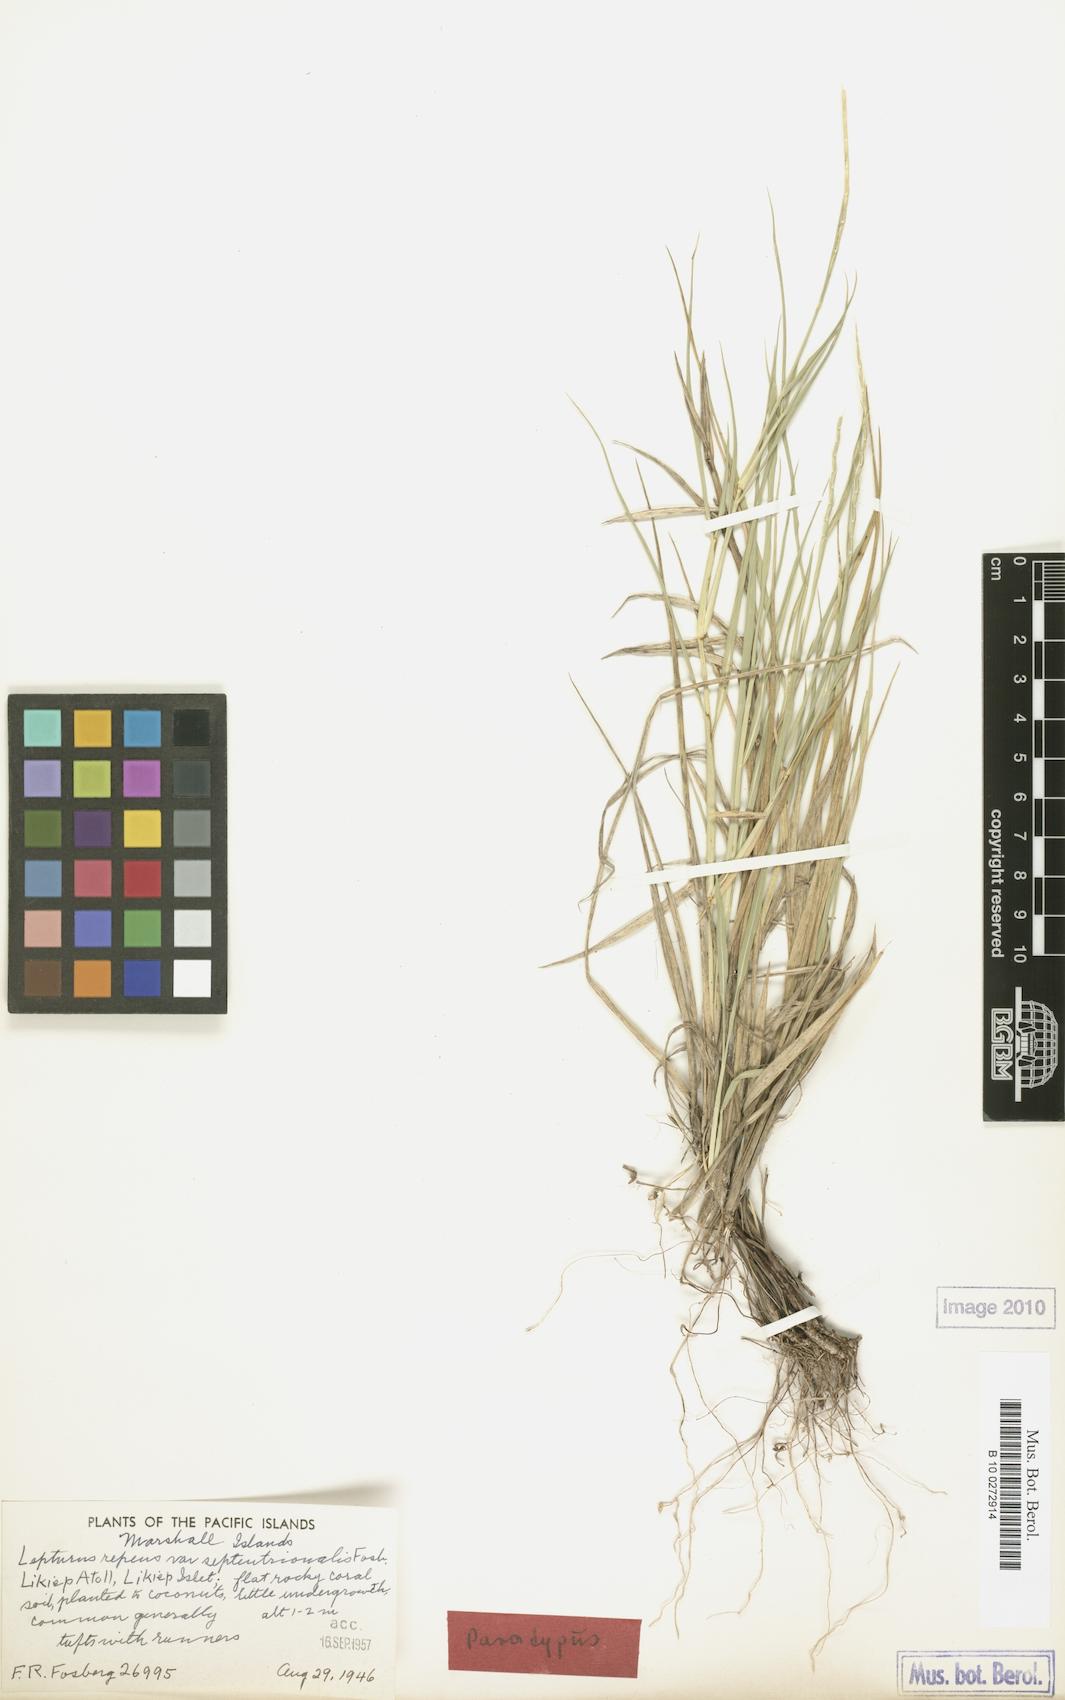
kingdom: Plantae
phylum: Tracheophyta
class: Liliopsida
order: Poales
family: Poaceae
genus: Lepturus
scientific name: Lepturus repens
